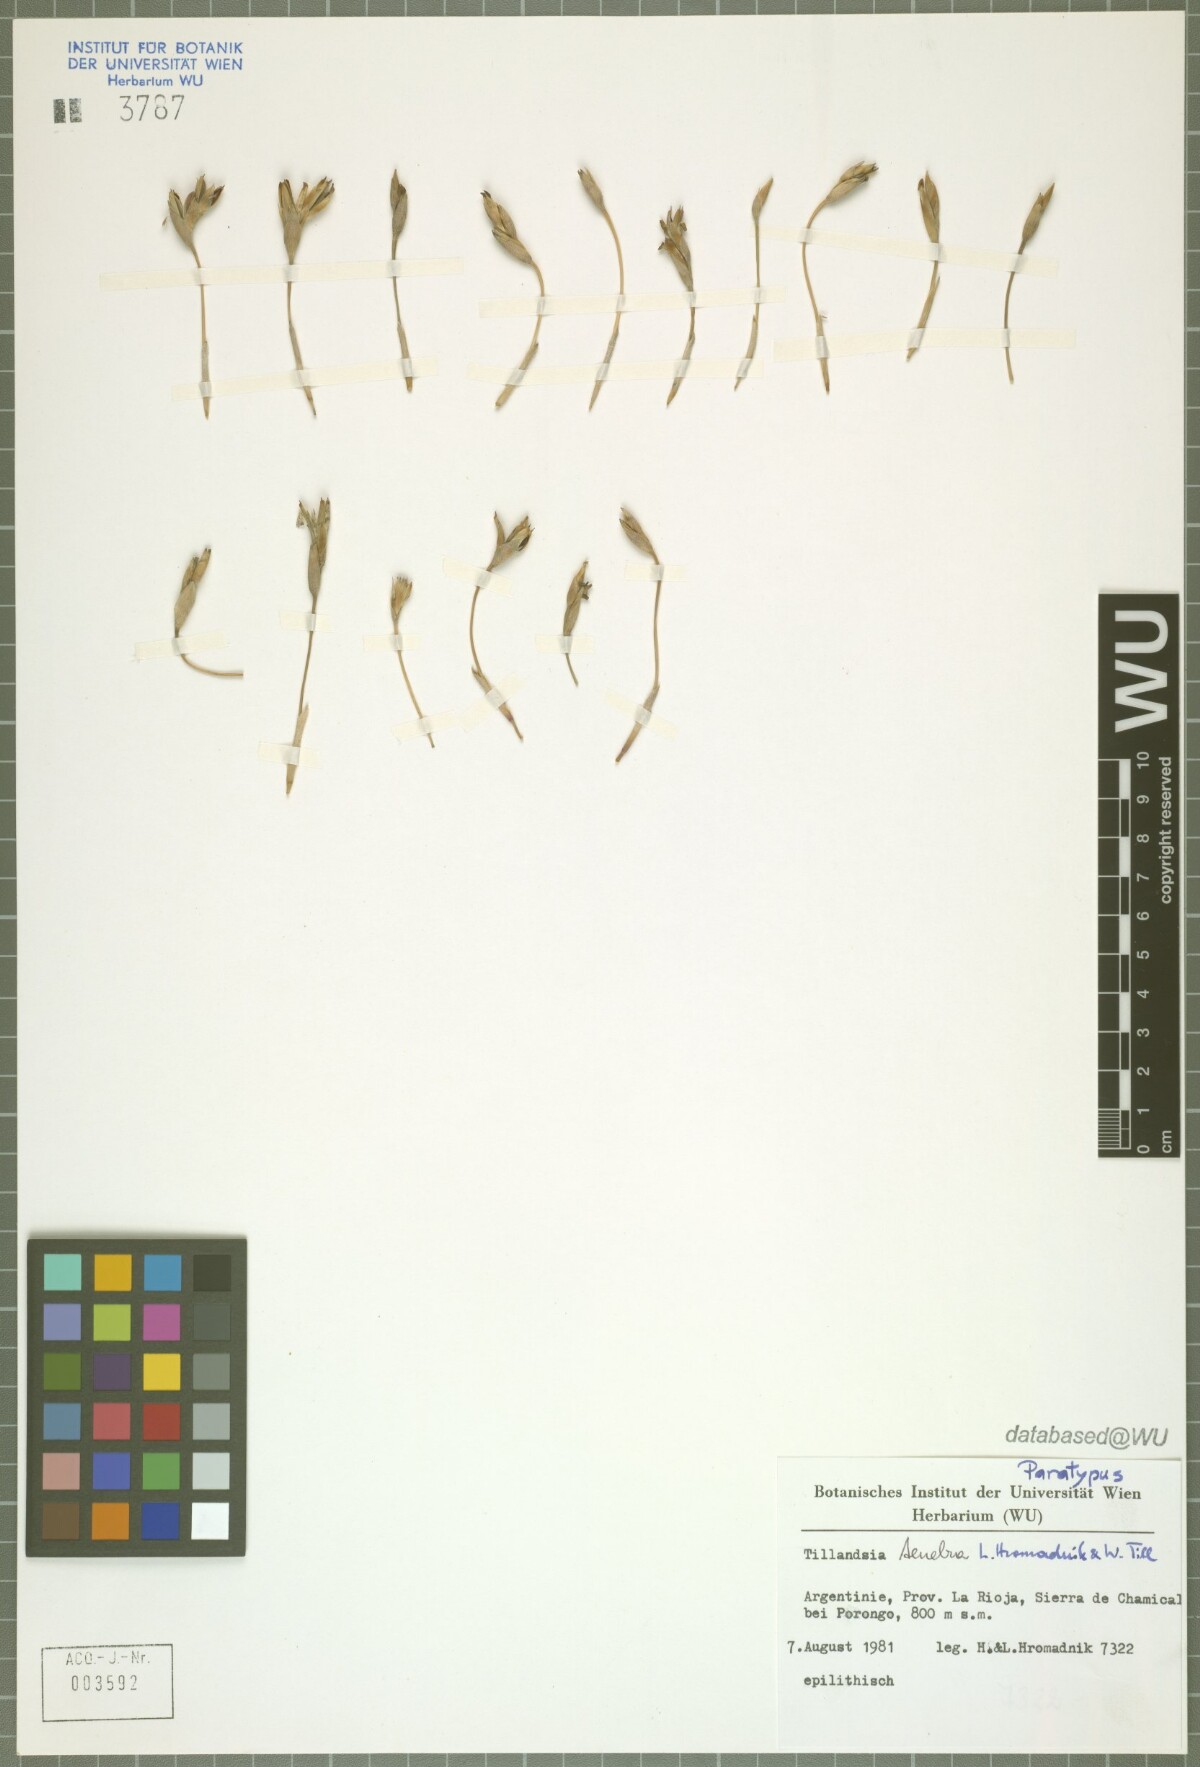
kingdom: Plantae
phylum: Tracheophyta
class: Liliopsida
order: Poales
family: Bromeliaceae
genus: Tillandsia
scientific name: Tillandsia tenebra
